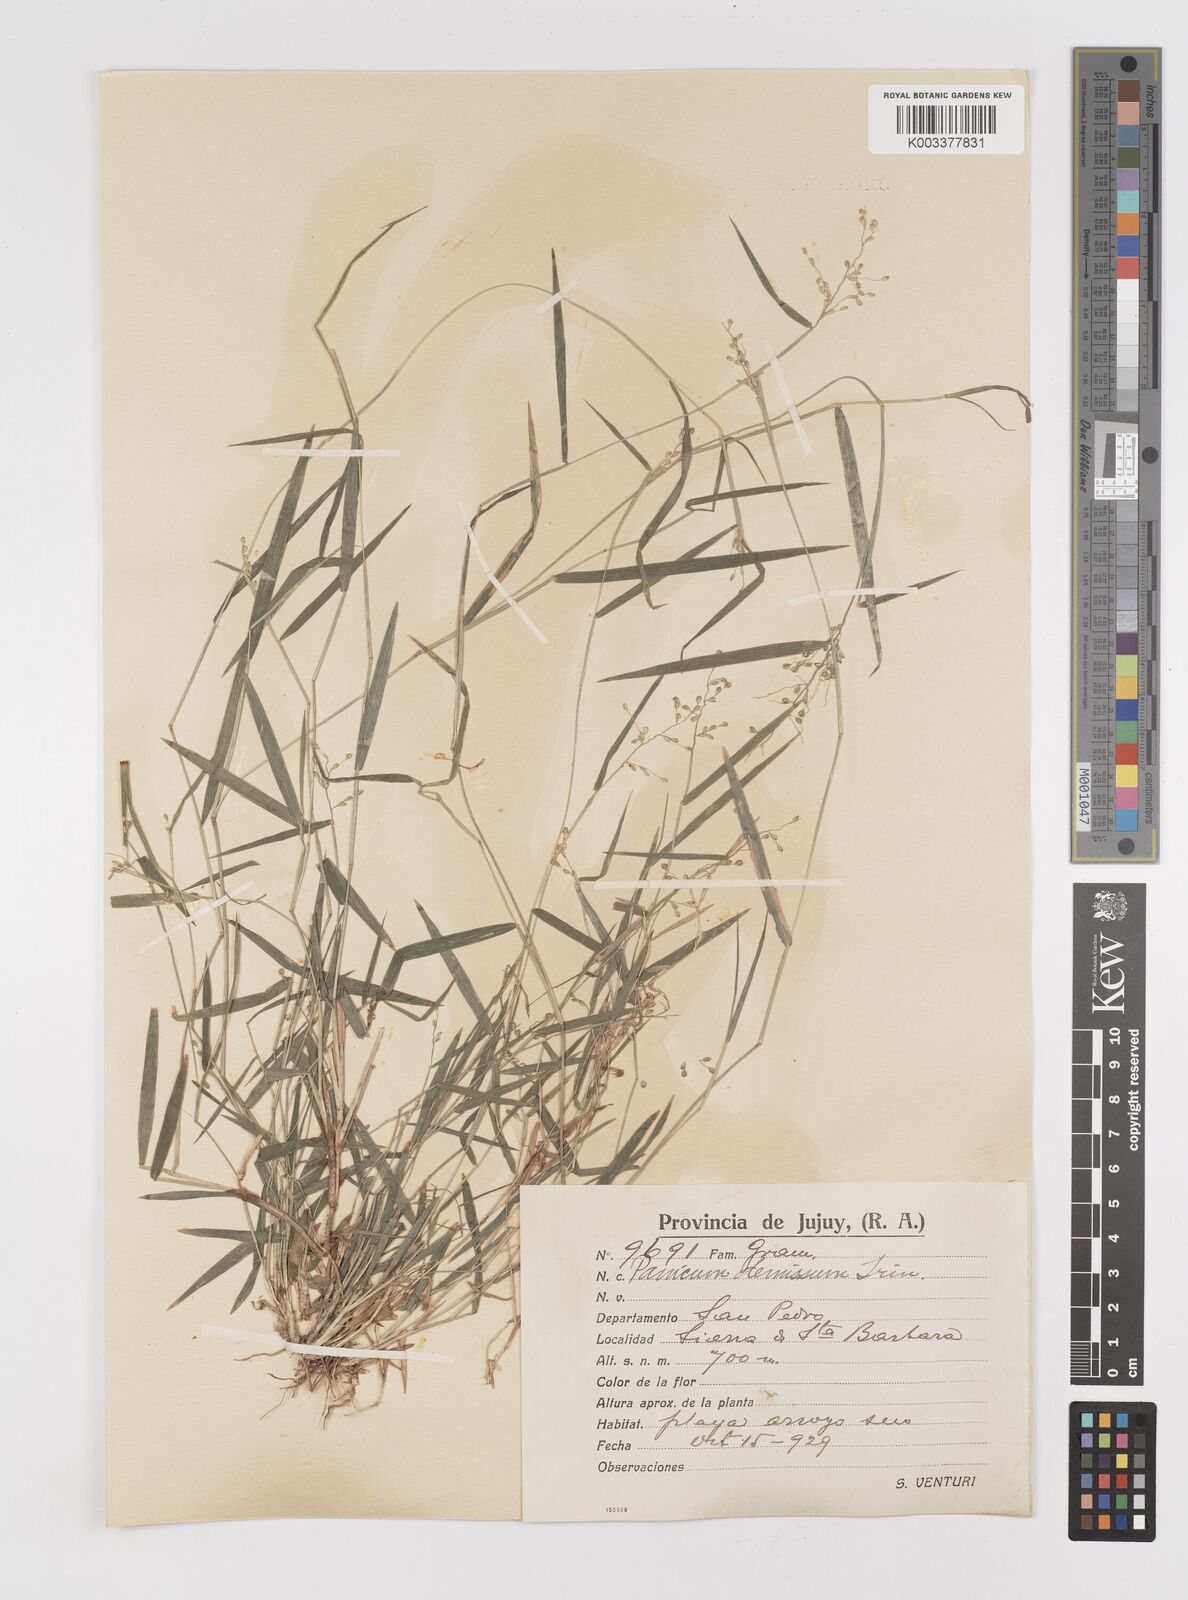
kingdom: Plantae
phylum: Tracheophyta
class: Liliopsida
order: Poales
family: Poaceae
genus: Dichanthelium
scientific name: Dichanthelium sabulorum
